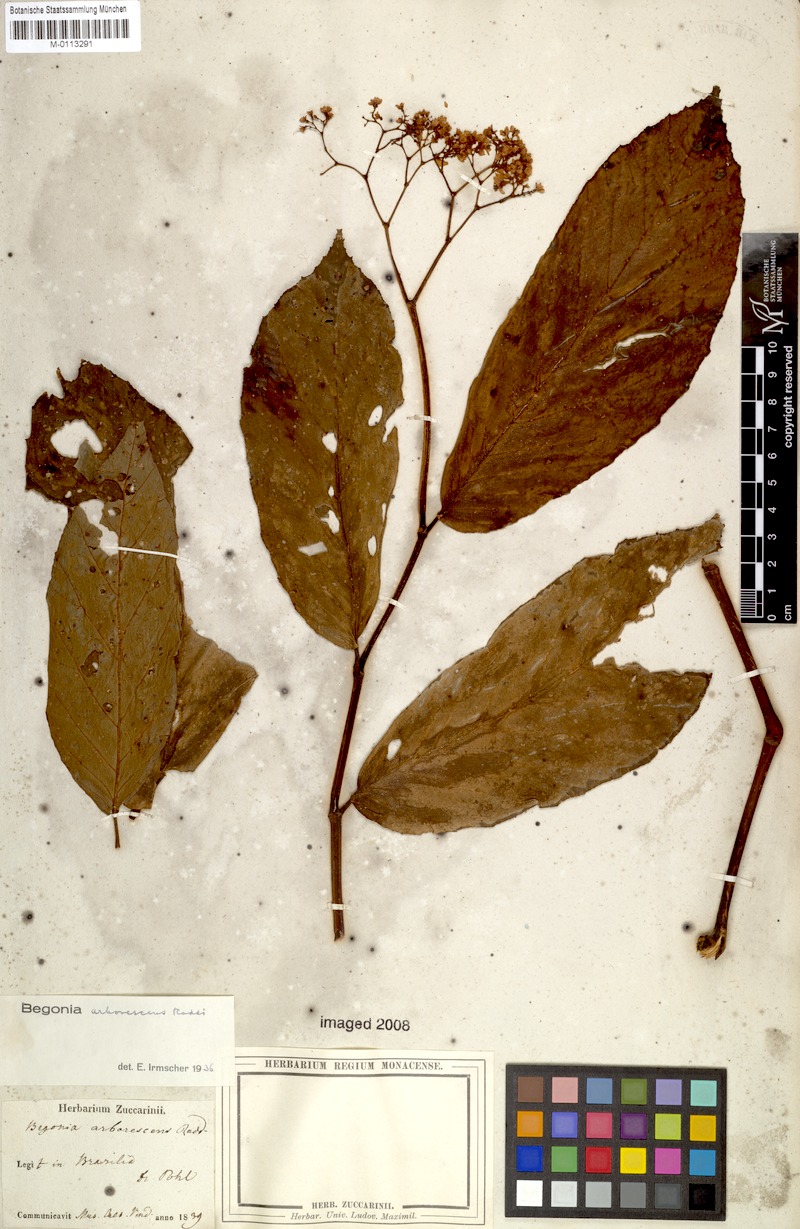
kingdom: Plantae
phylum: Tracheophyta
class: Magnoliopsida
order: Cucurbitales
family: Begoniaceae
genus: Begonia
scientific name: Begonia arborescens
